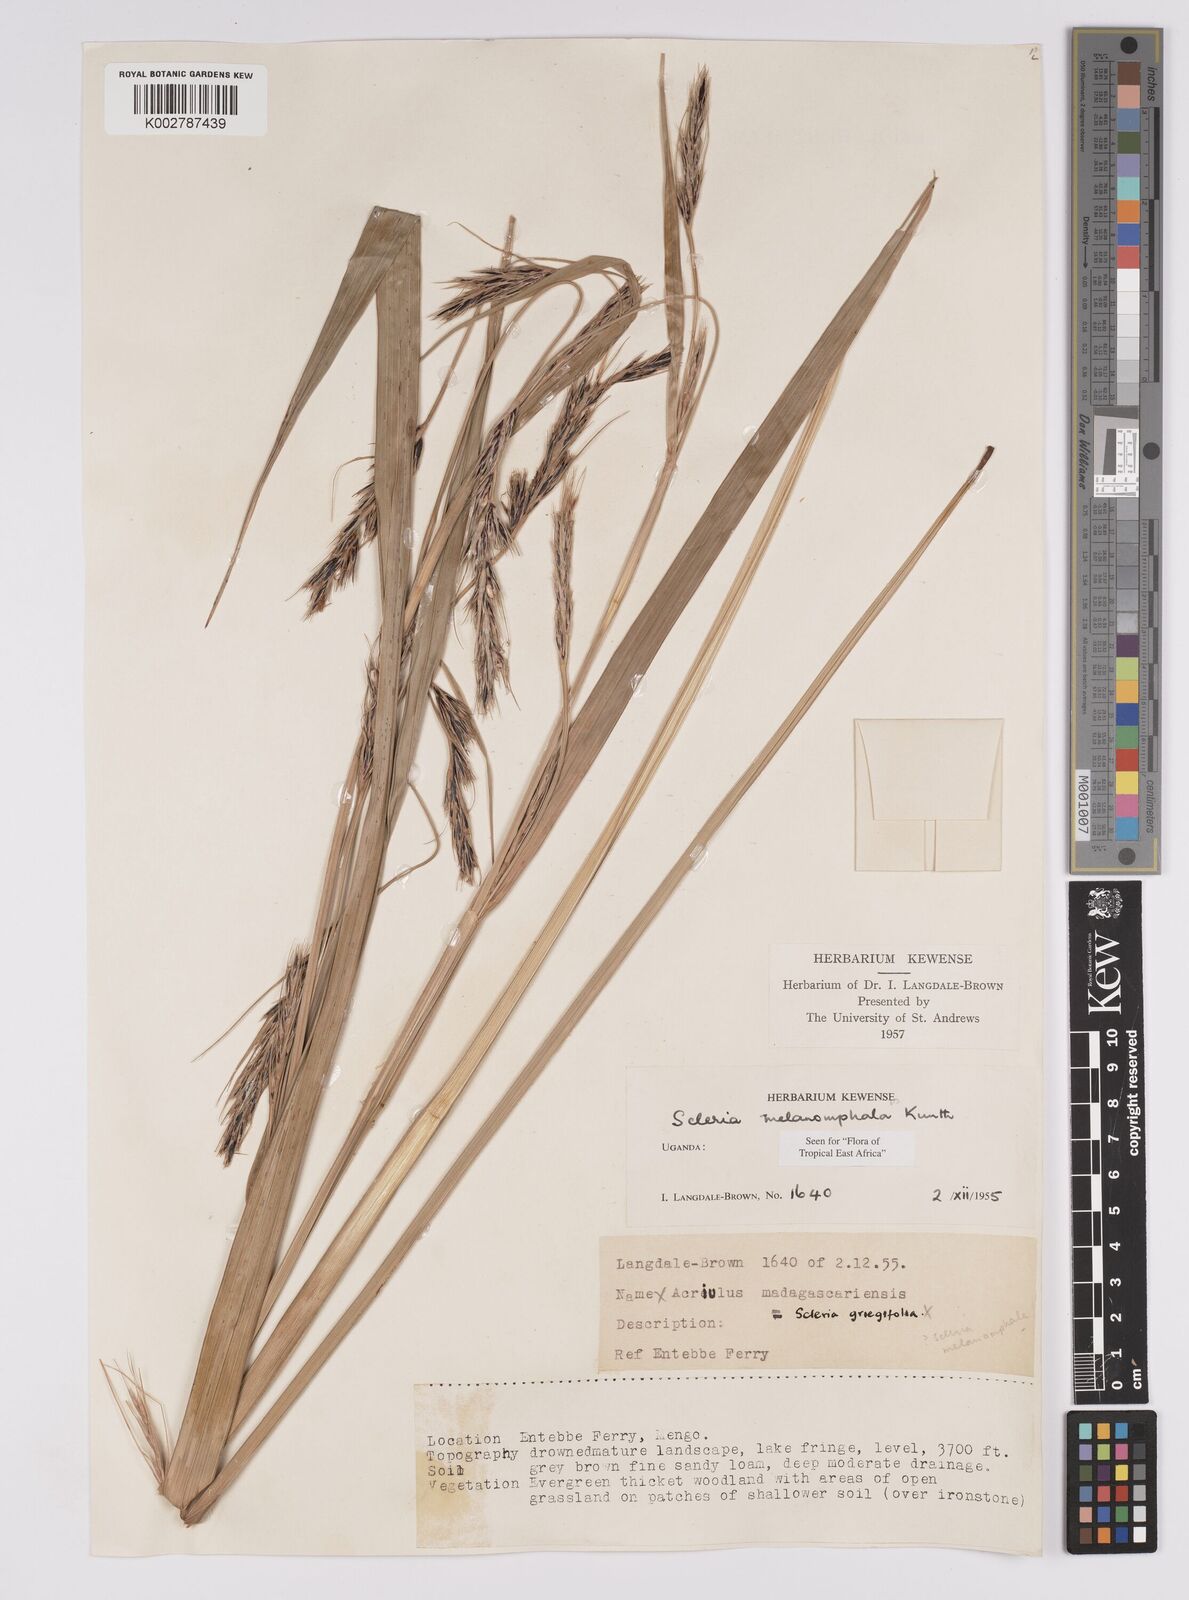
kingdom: Plantae
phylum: Tracheophyta
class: Liliopsida
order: Poales
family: Cyperaceae
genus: Scleria
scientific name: Scleria melanomphala
